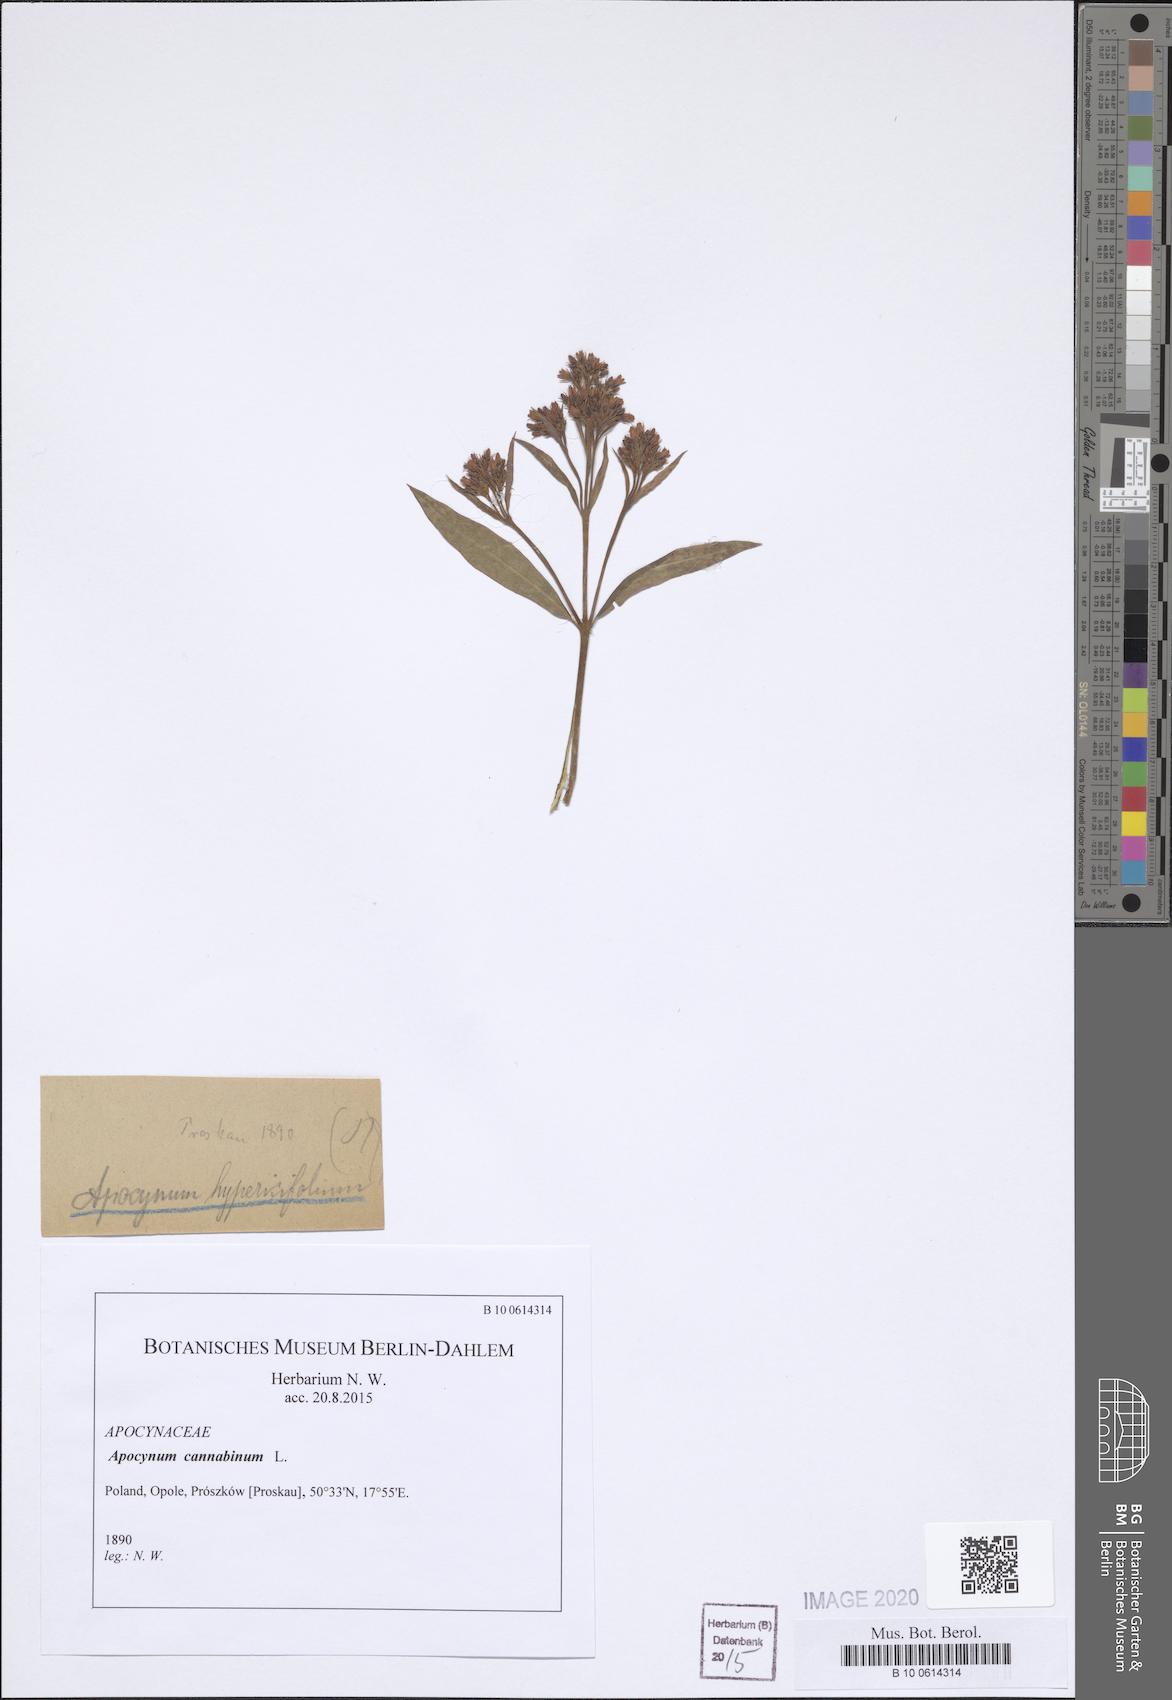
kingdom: Plantae
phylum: Tracheophyta
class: Magnoliopsida
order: Gentianales
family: Apocynaceae
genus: Apocynum
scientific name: Apocynum cannabinum
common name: Hemp dogbane
